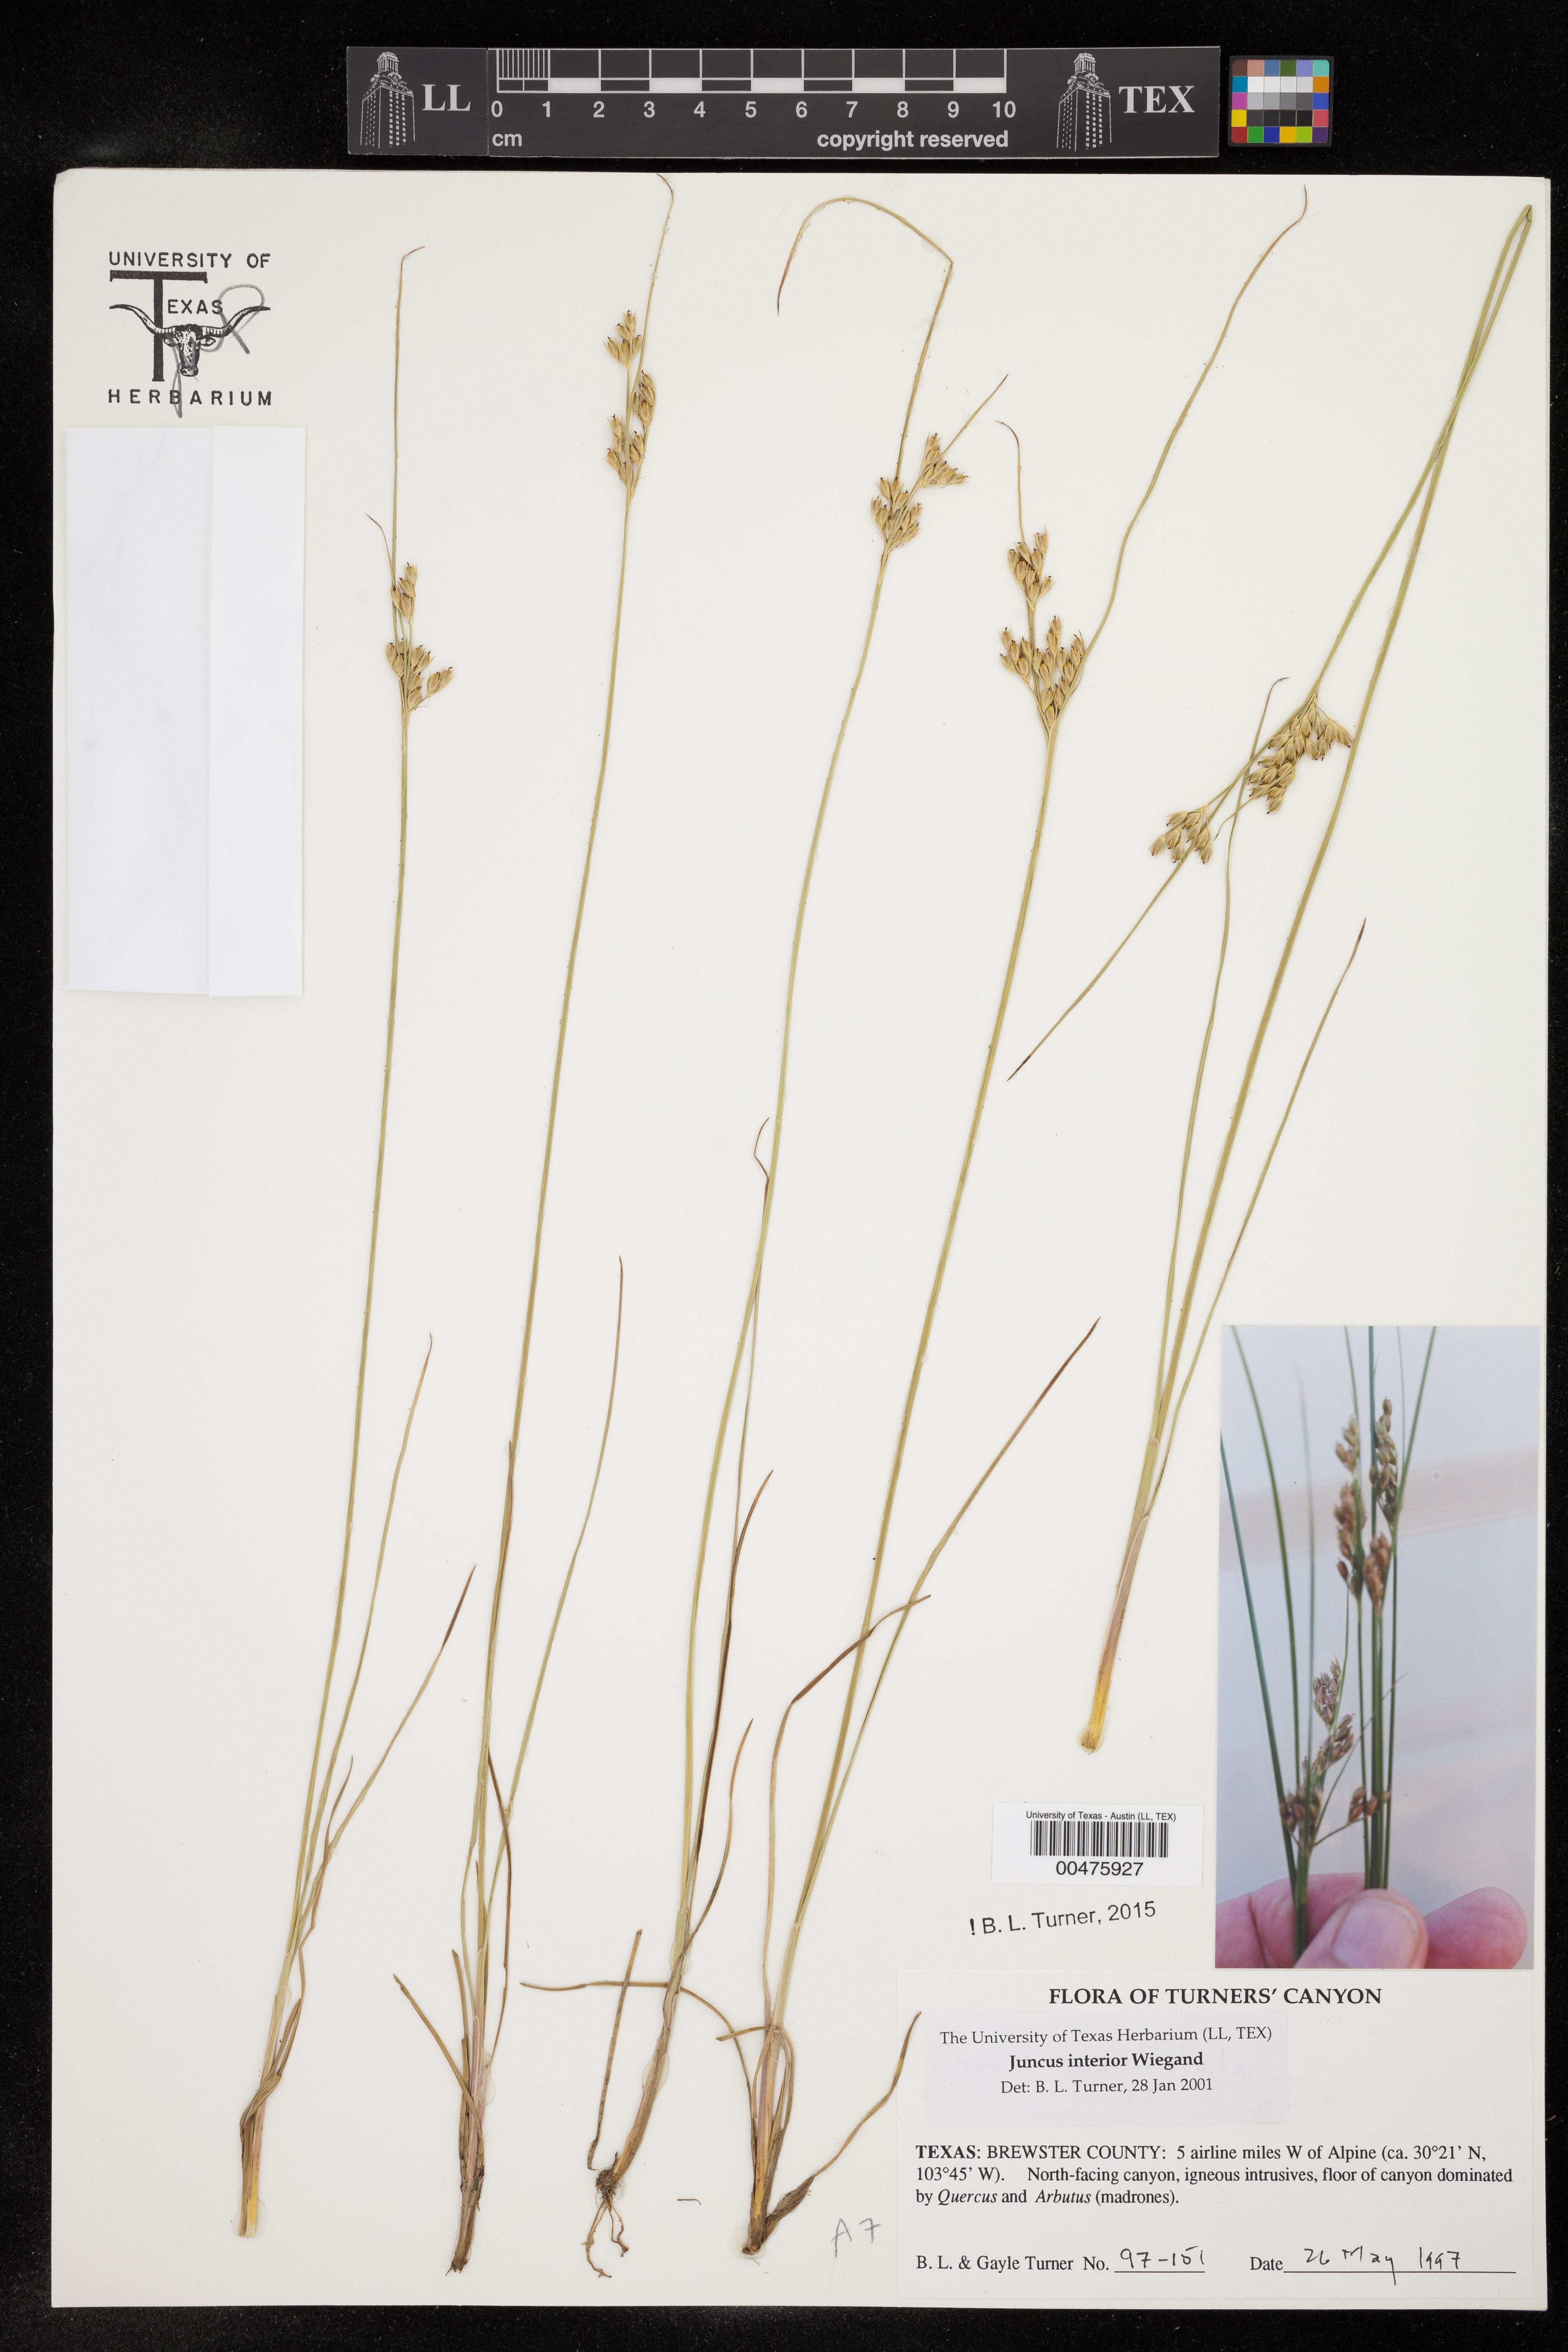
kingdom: Plantae
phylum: Tracheophyta
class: Liliopsida
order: Poales
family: Juncaceae
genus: Juncus
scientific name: Juncus interior
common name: Interior rush
